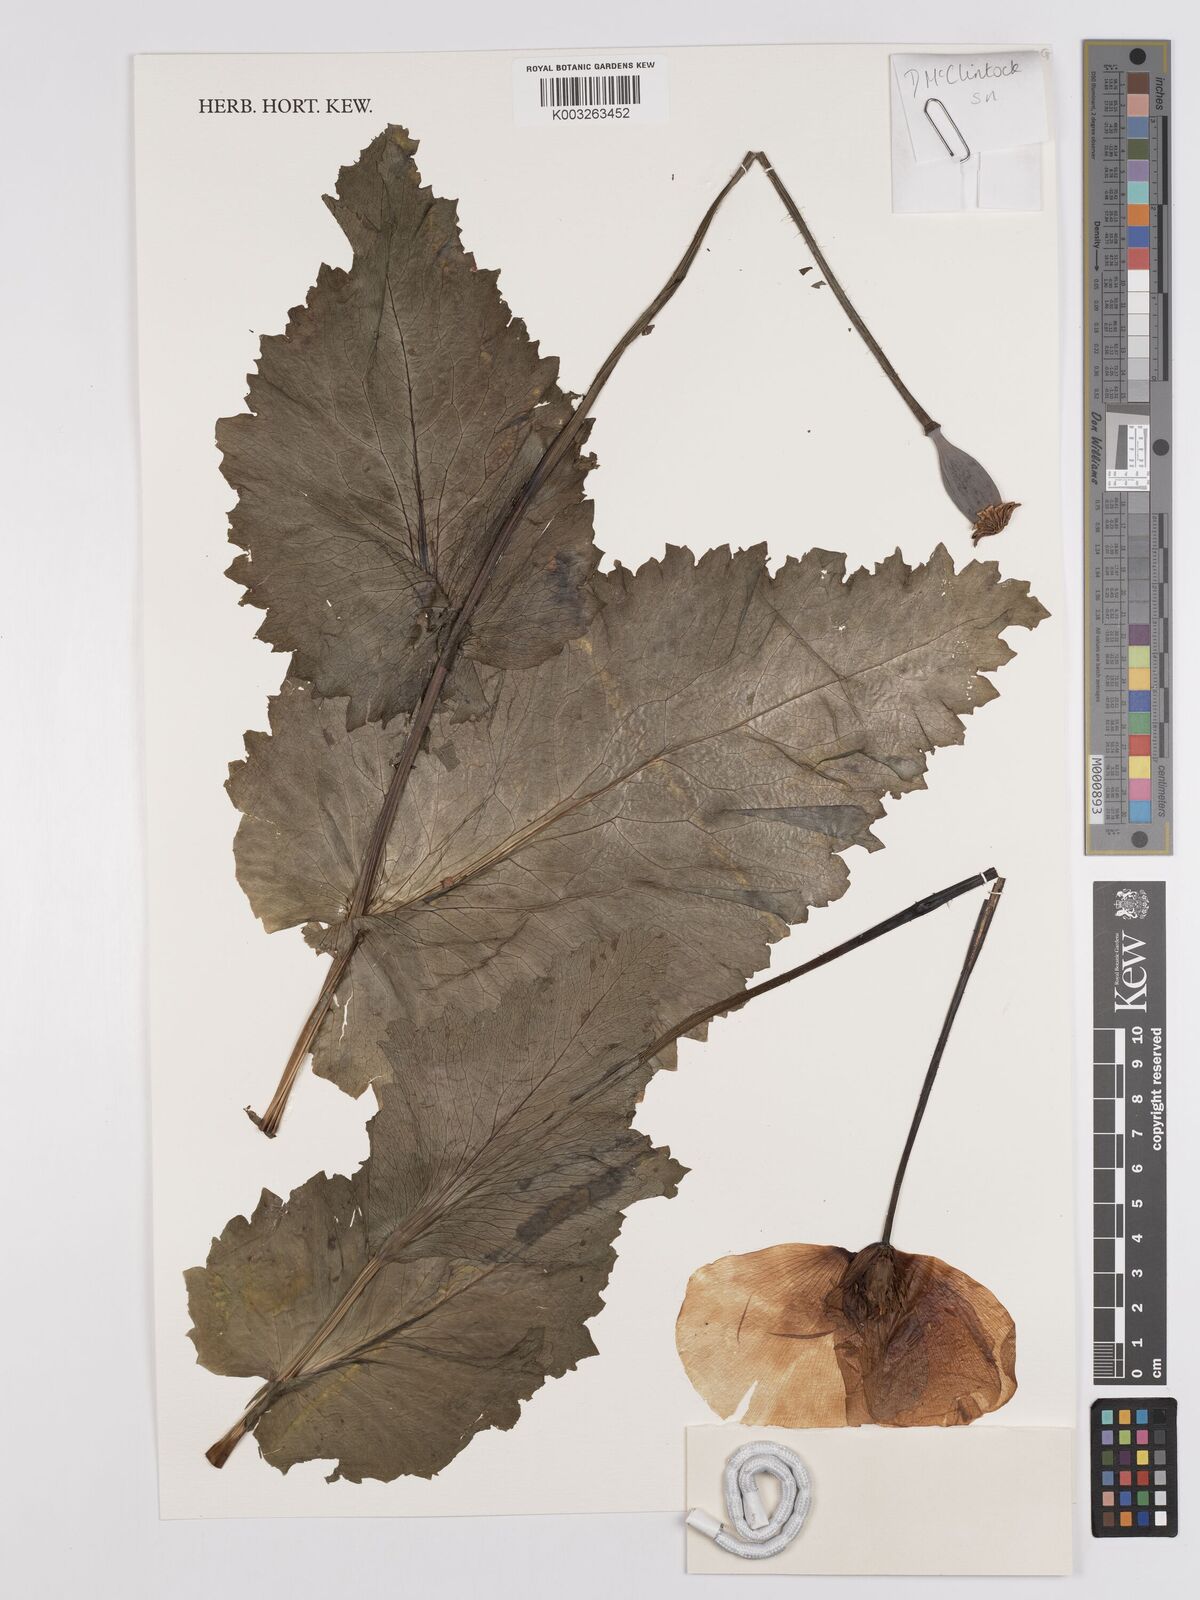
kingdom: Plantae
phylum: Tracheophyta
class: Magnoliopsida
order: Ranunculales
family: Papaveraceae
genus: Papaver
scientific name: Papaver somniferum
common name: Opium poppy
